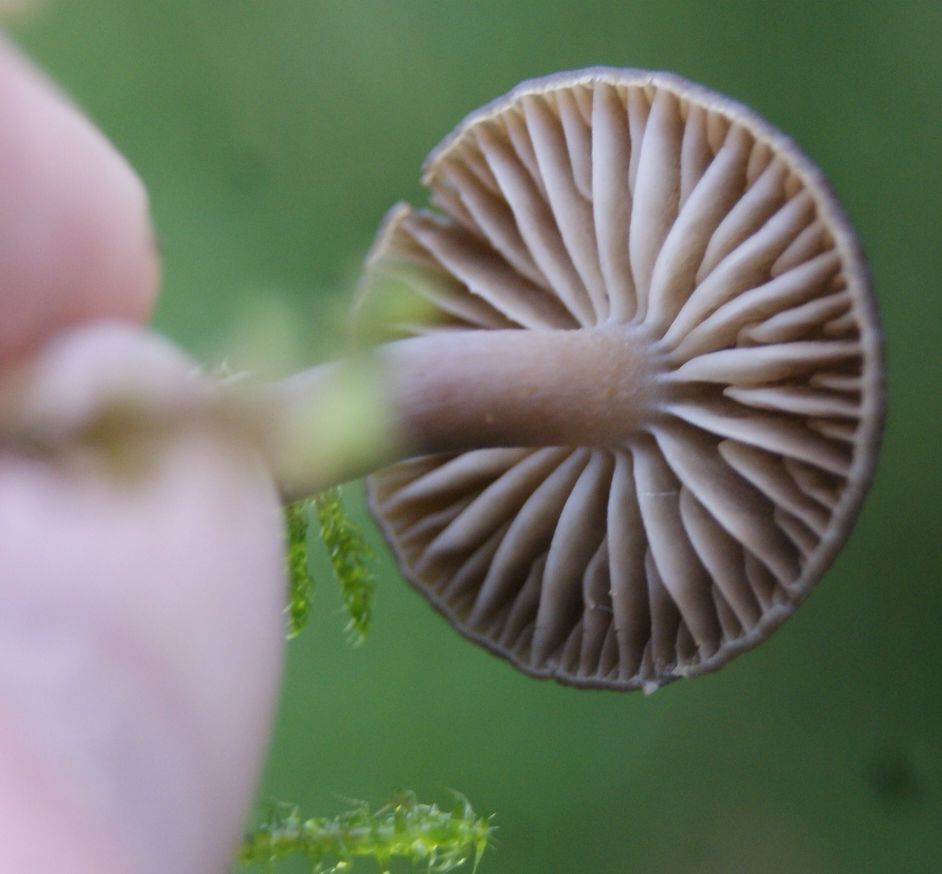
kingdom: Fungi
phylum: Basidiomycota
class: Agaricomycetes
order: Agaricales
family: Hygrophoraceae
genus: Neohygrocybe
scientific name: Neohygrocybe nitrata
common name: stinkende vokshat
